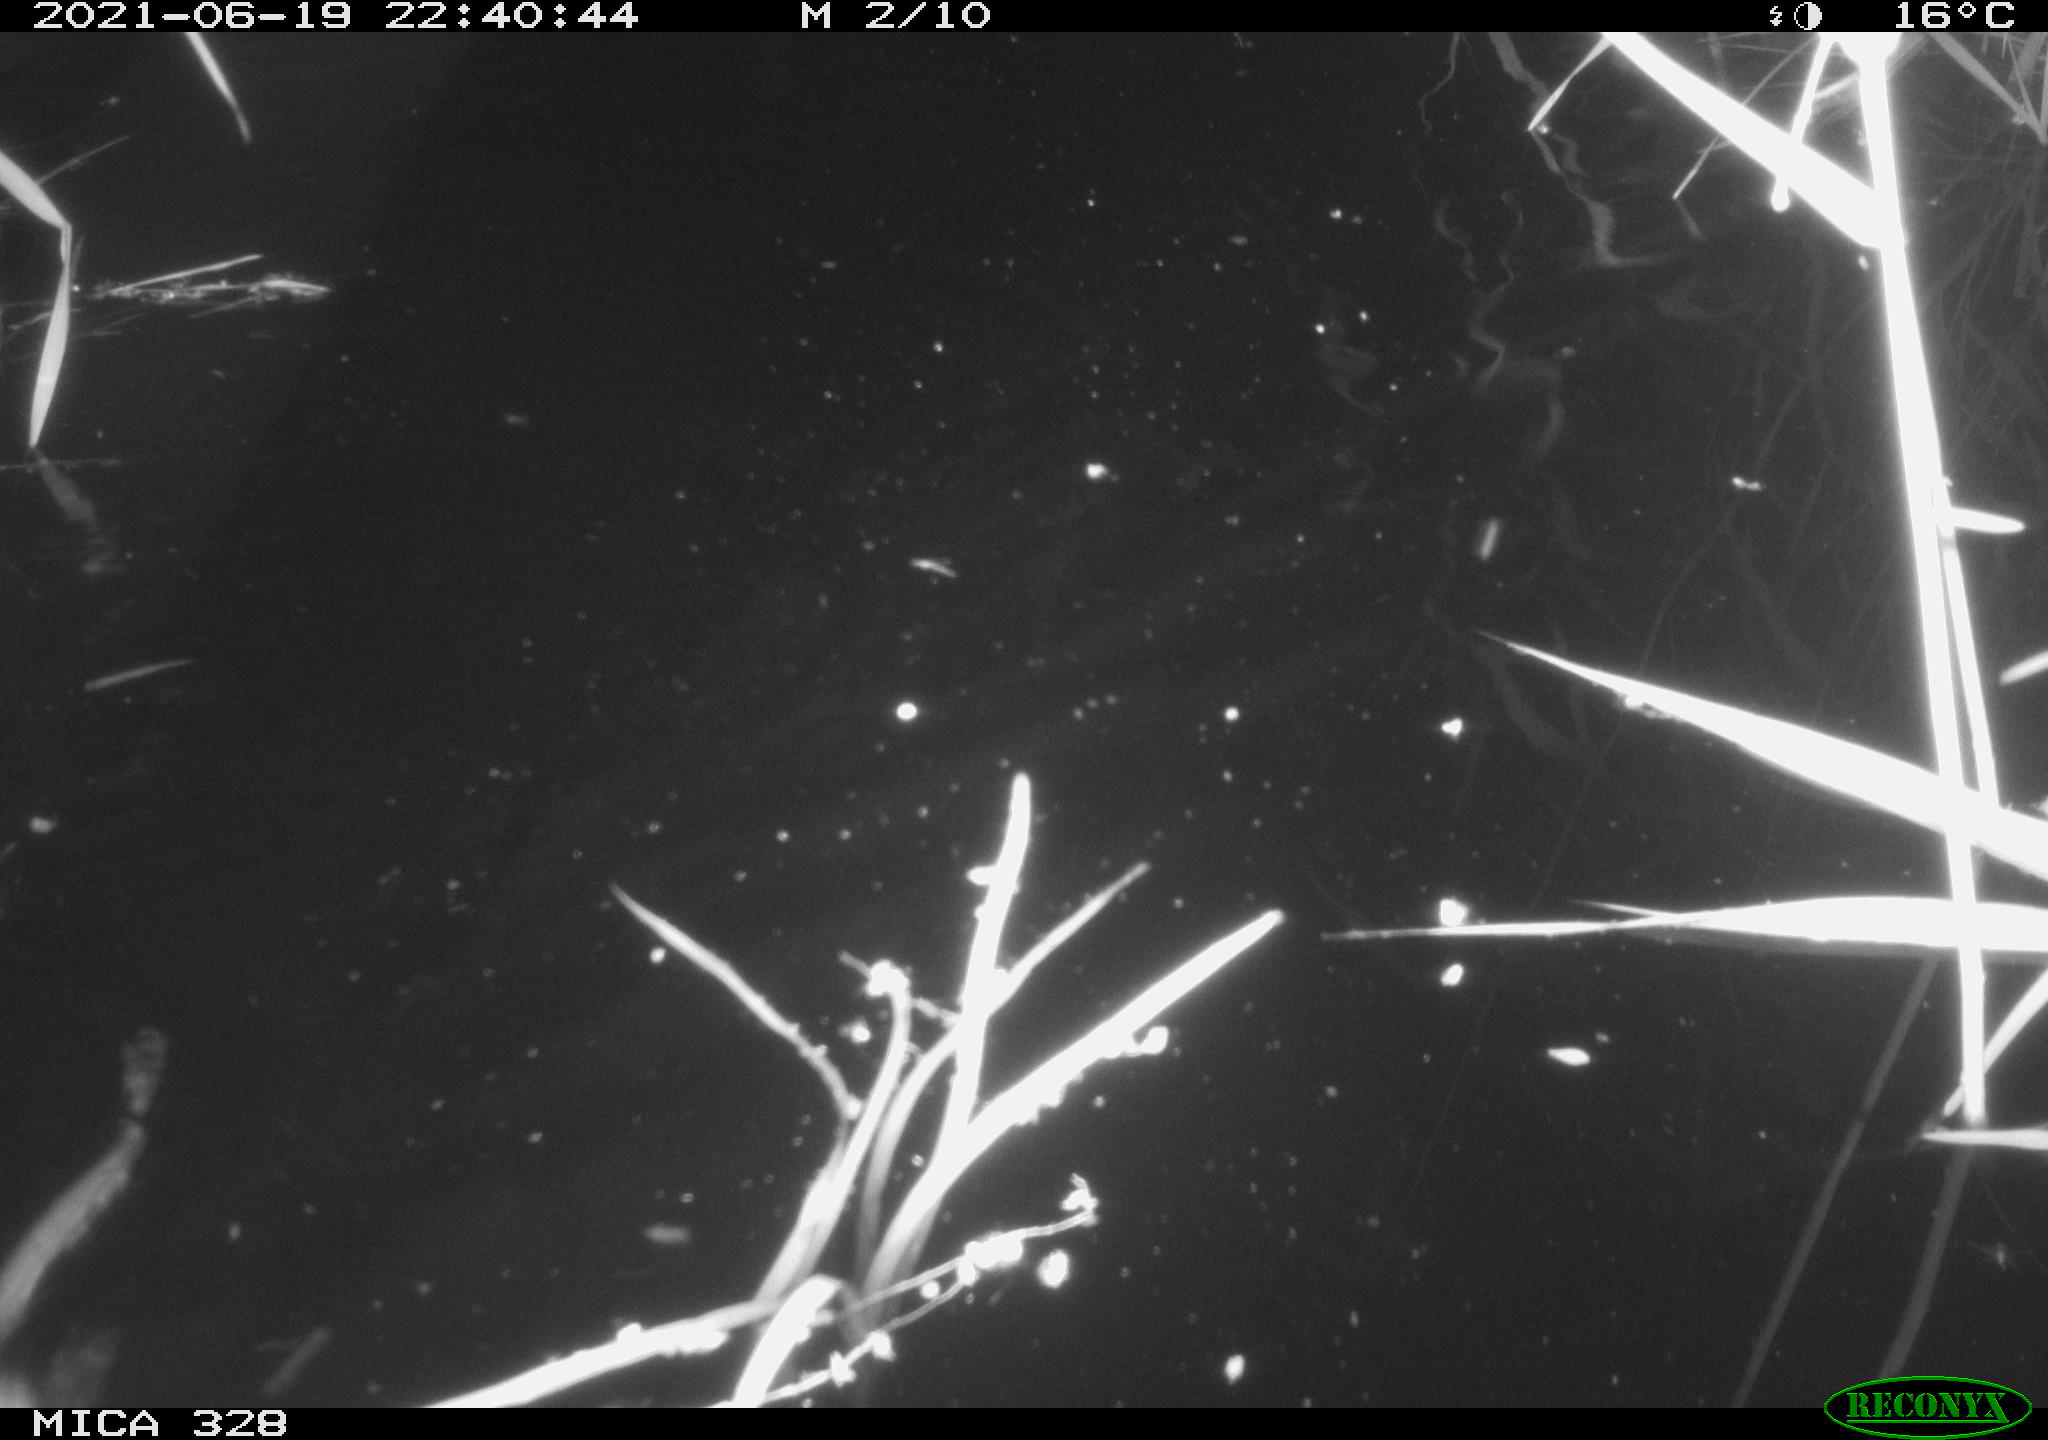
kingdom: Animalia
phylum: Chordata
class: Mammalia
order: Rodentia
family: Cricetidae
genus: Ondatra
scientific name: Ondatra zibethicus
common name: Muskrat
